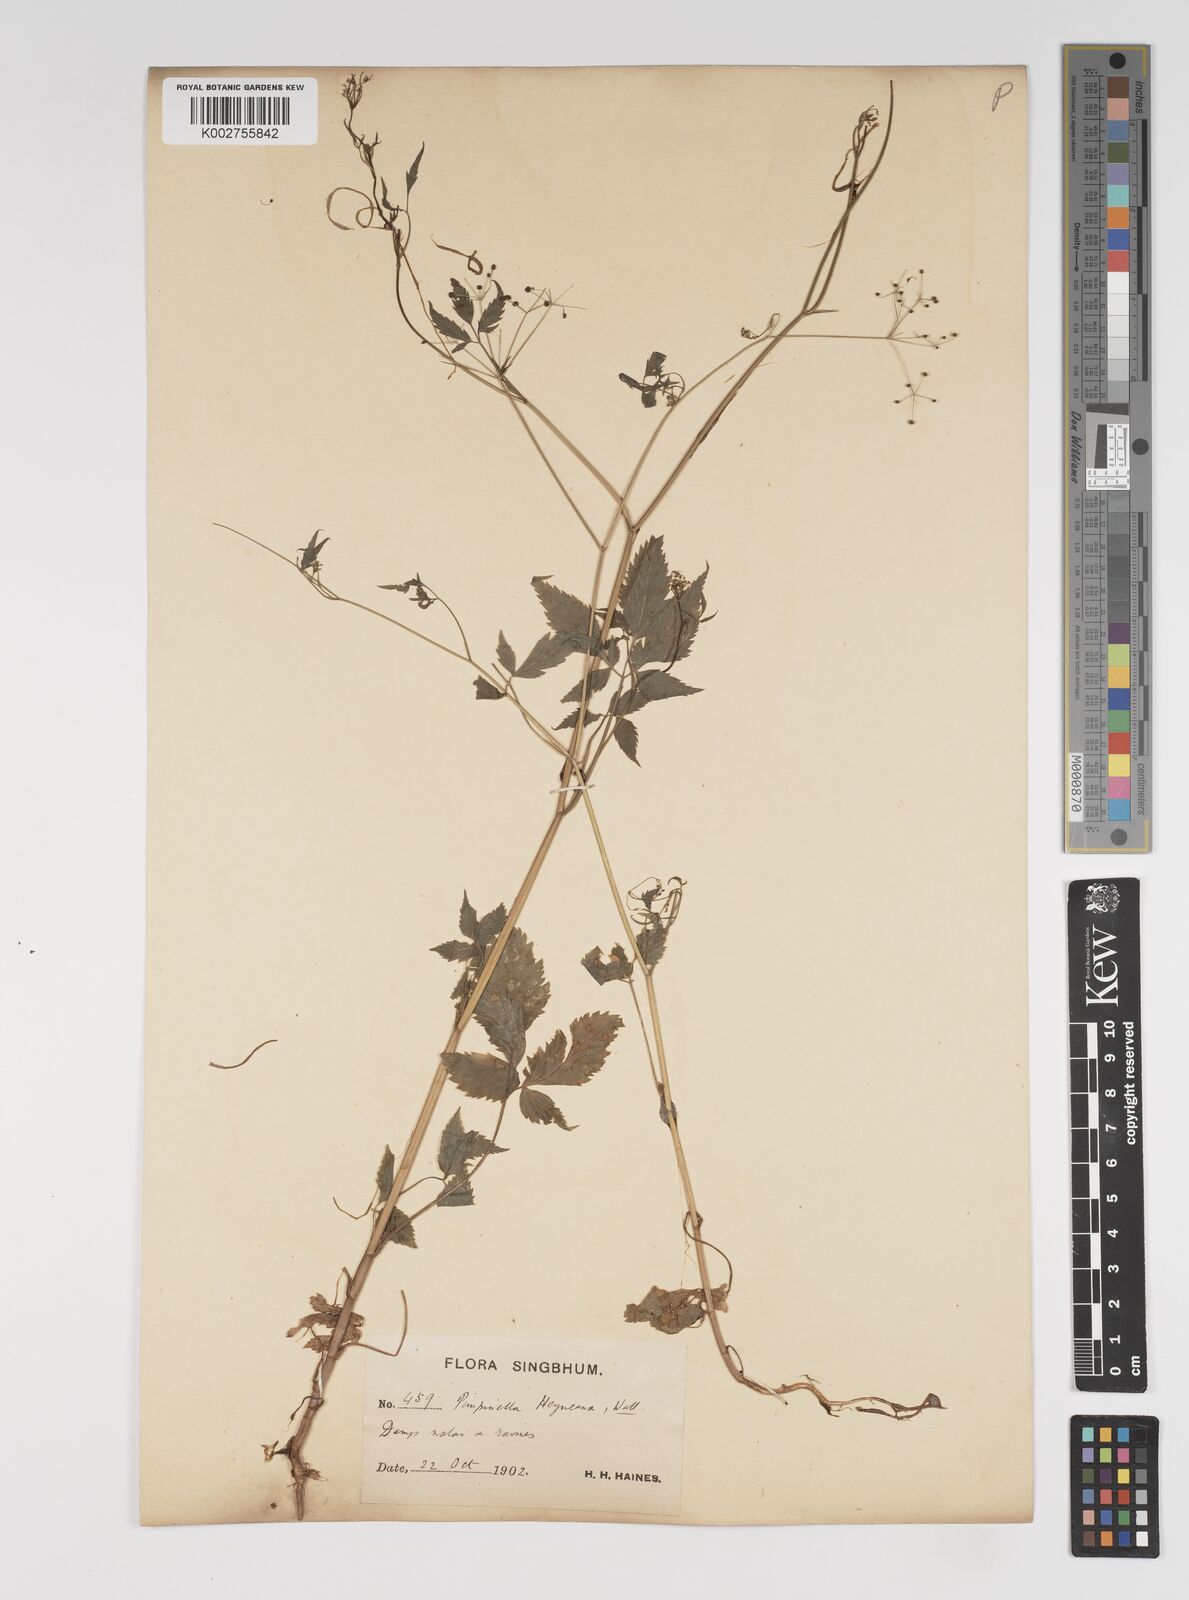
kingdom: Plantae
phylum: Tracheophyta
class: Magnoliopsida
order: Apiales
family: Apiaceae
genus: Pimpinella
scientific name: Pimpinella heyneana
